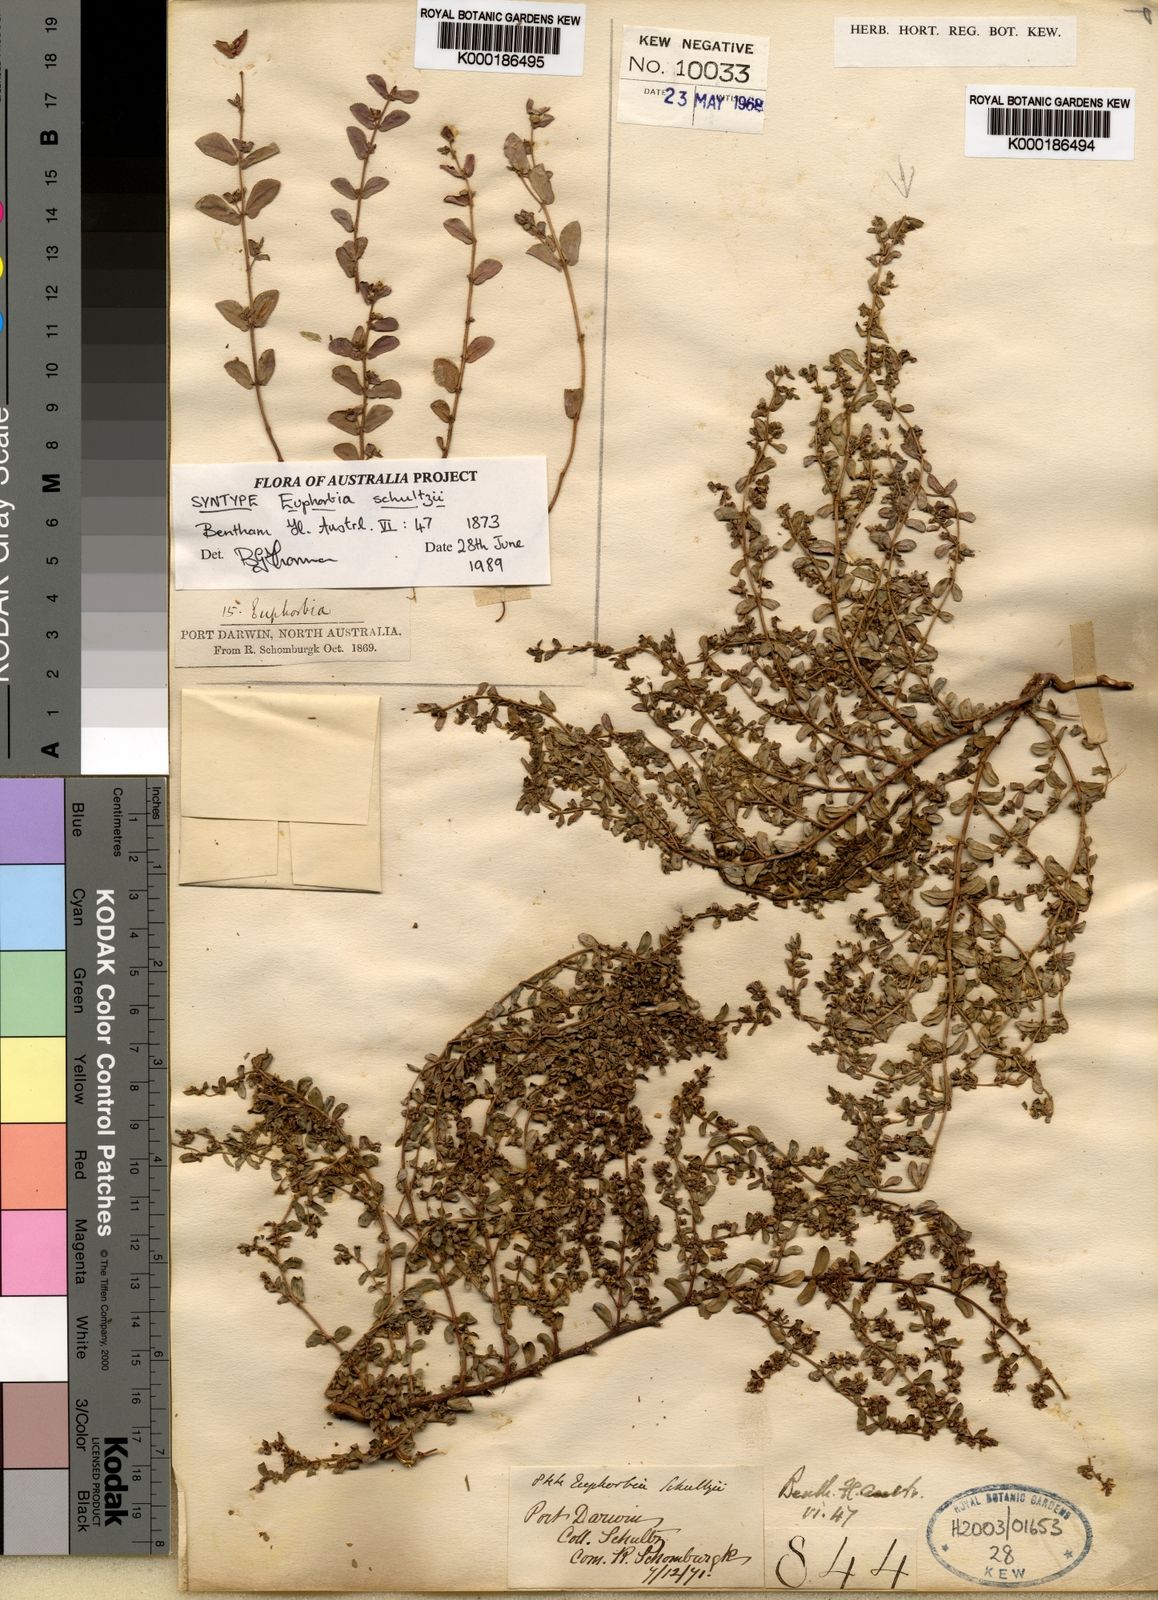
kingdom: Plantae
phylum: Tracheophyta
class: Magnoliopsida
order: Malpighiales
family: Euphorbiaceae
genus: Euphorbia
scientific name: Euphorbia schultzii
